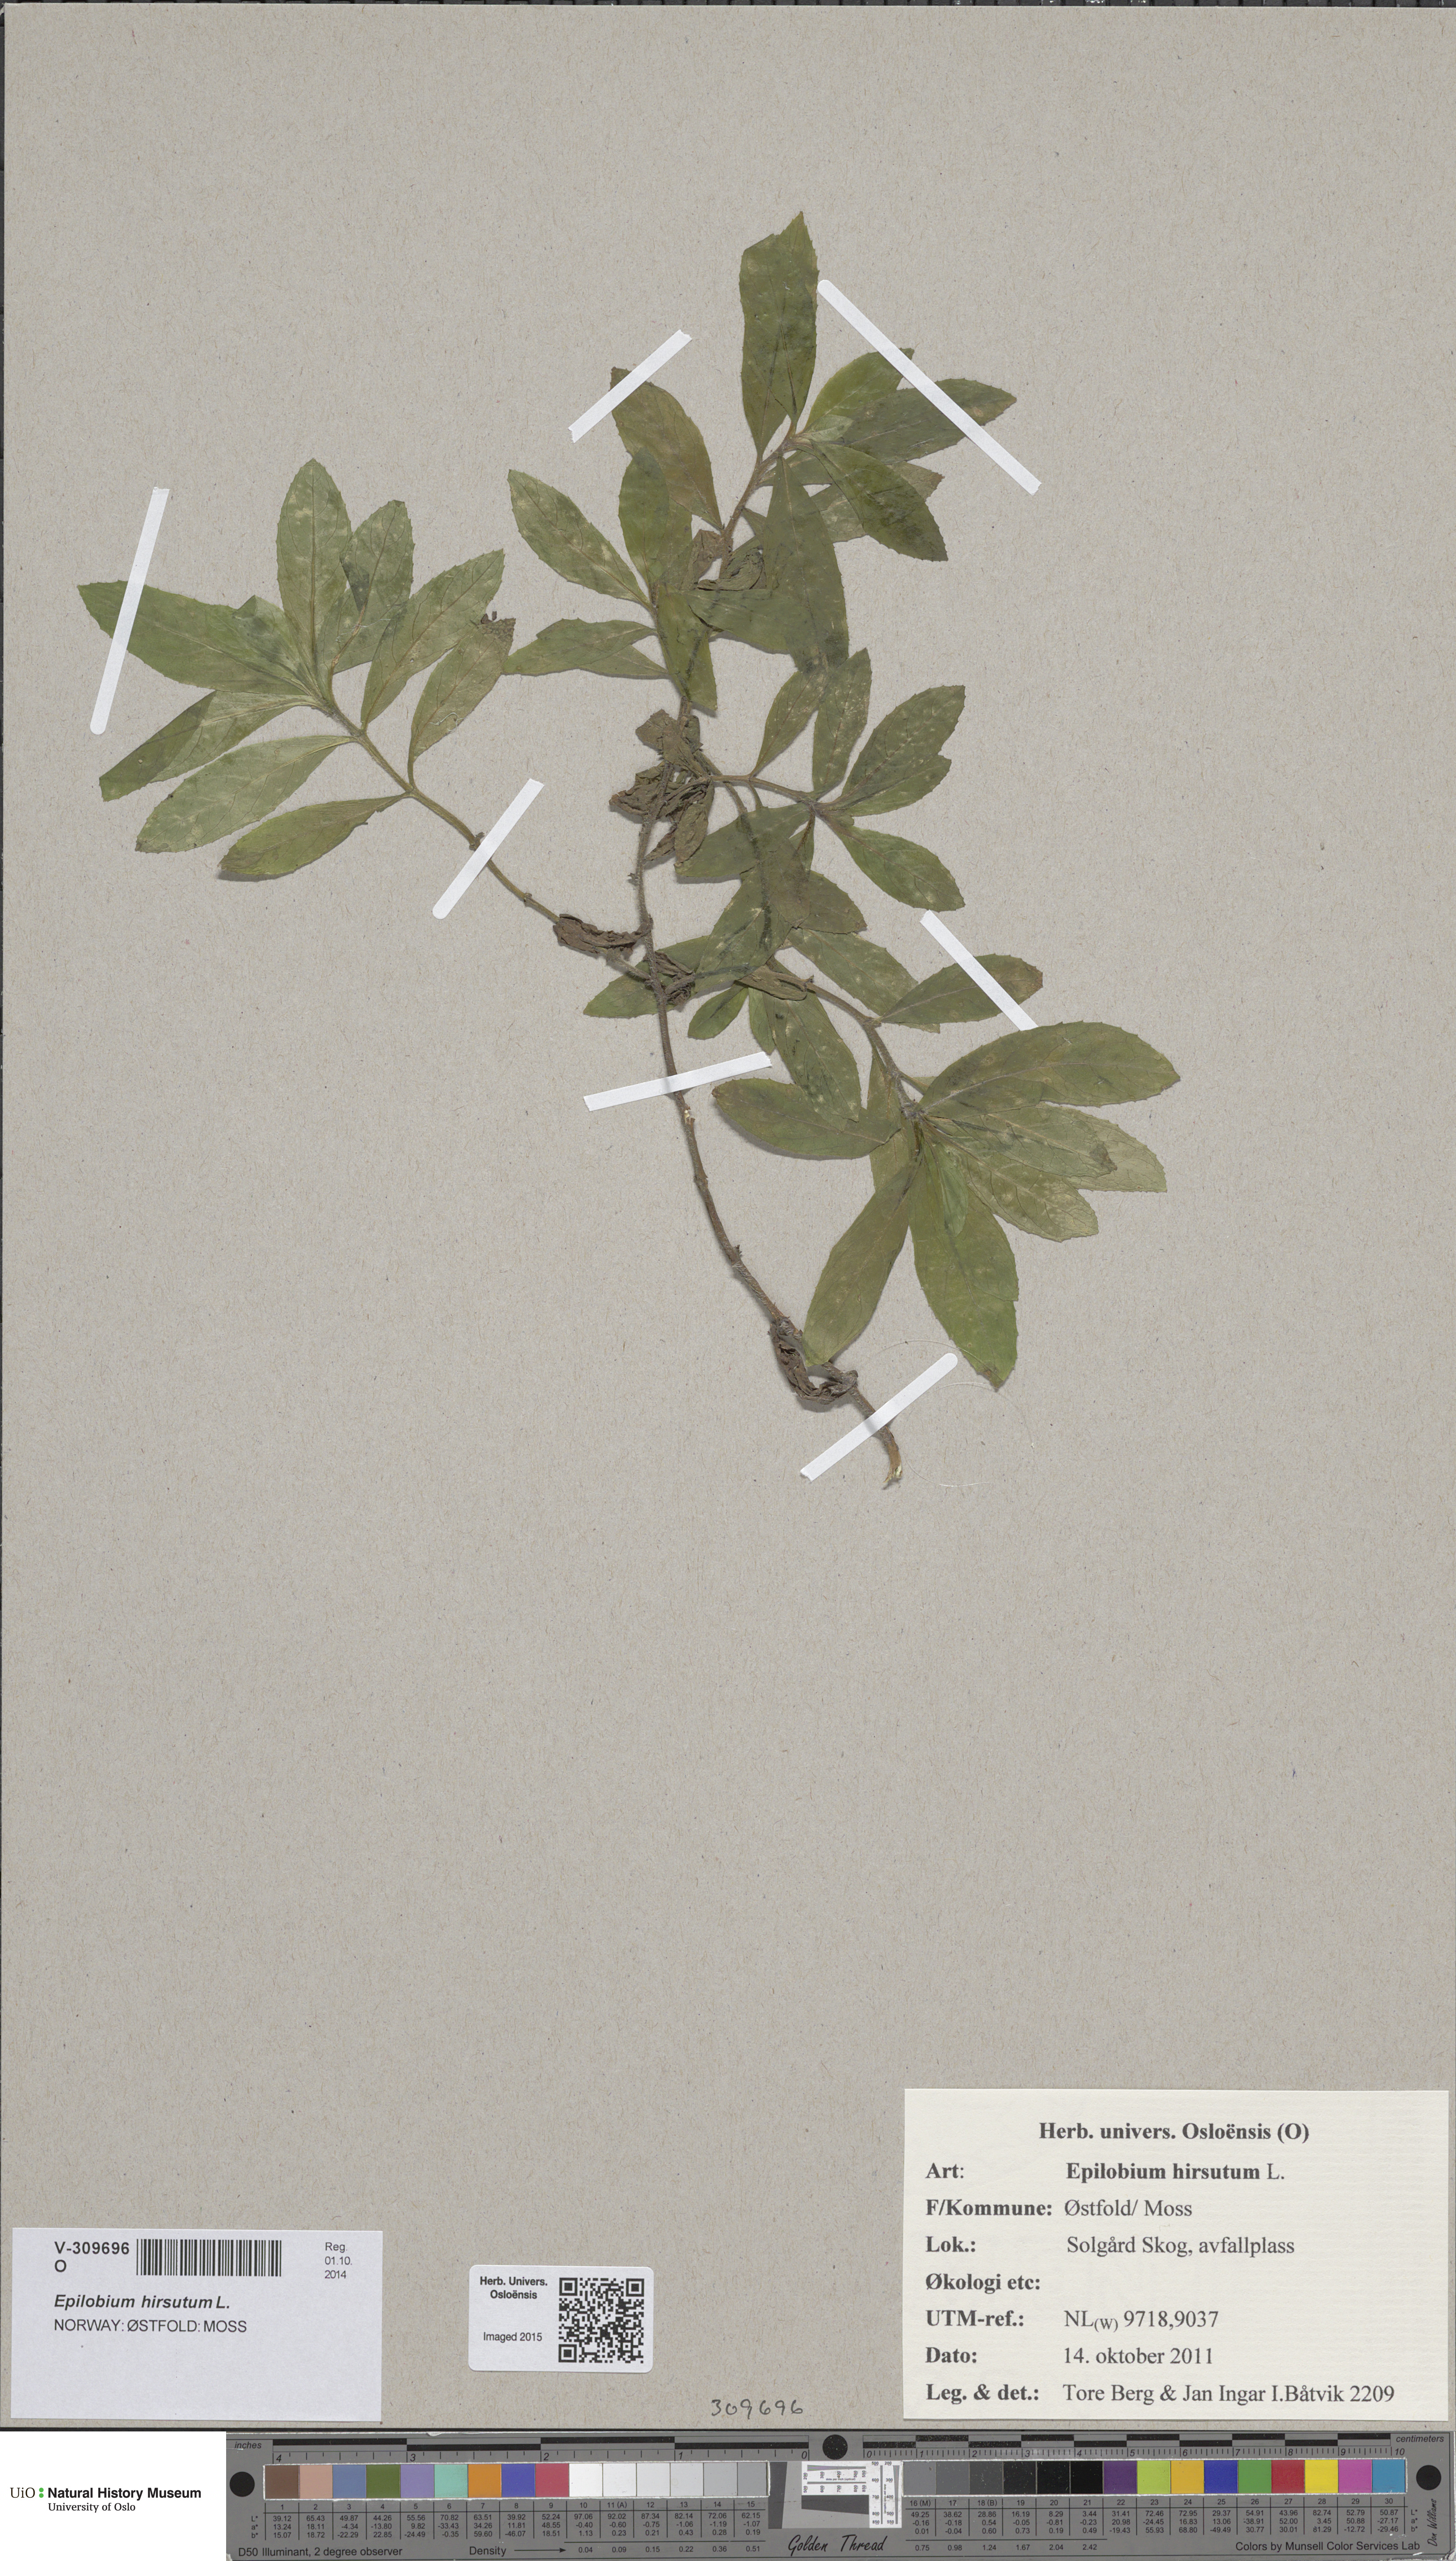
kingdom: Plantae
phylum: Tracheophyta
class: Magnoliopsida
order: Myrtales
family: Onagraceae
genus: Epilobium
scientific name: Epilobium hirsutum
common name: Great willowherb
